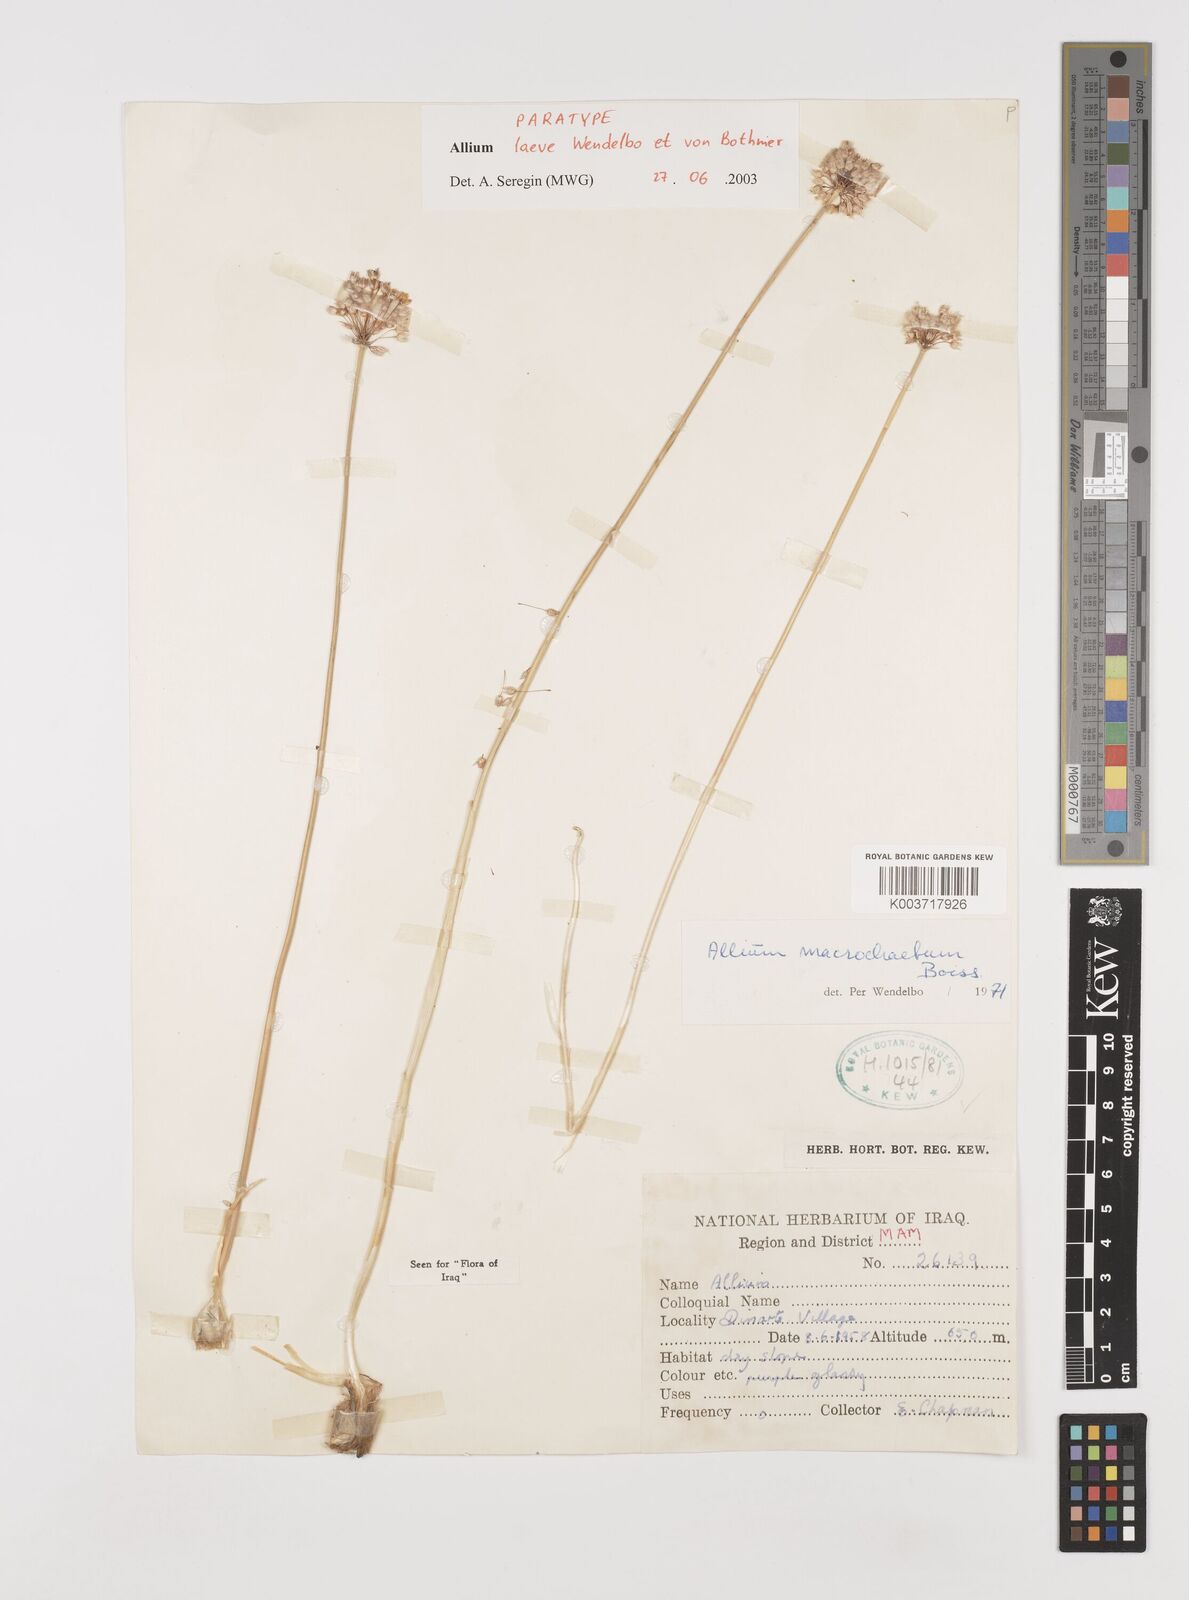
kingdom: Plantae
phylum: Tracheophyta
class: Liliopsida
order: Asparagales
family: Amaryllidaceae
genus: Allium
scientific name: Allium macrochaetum
